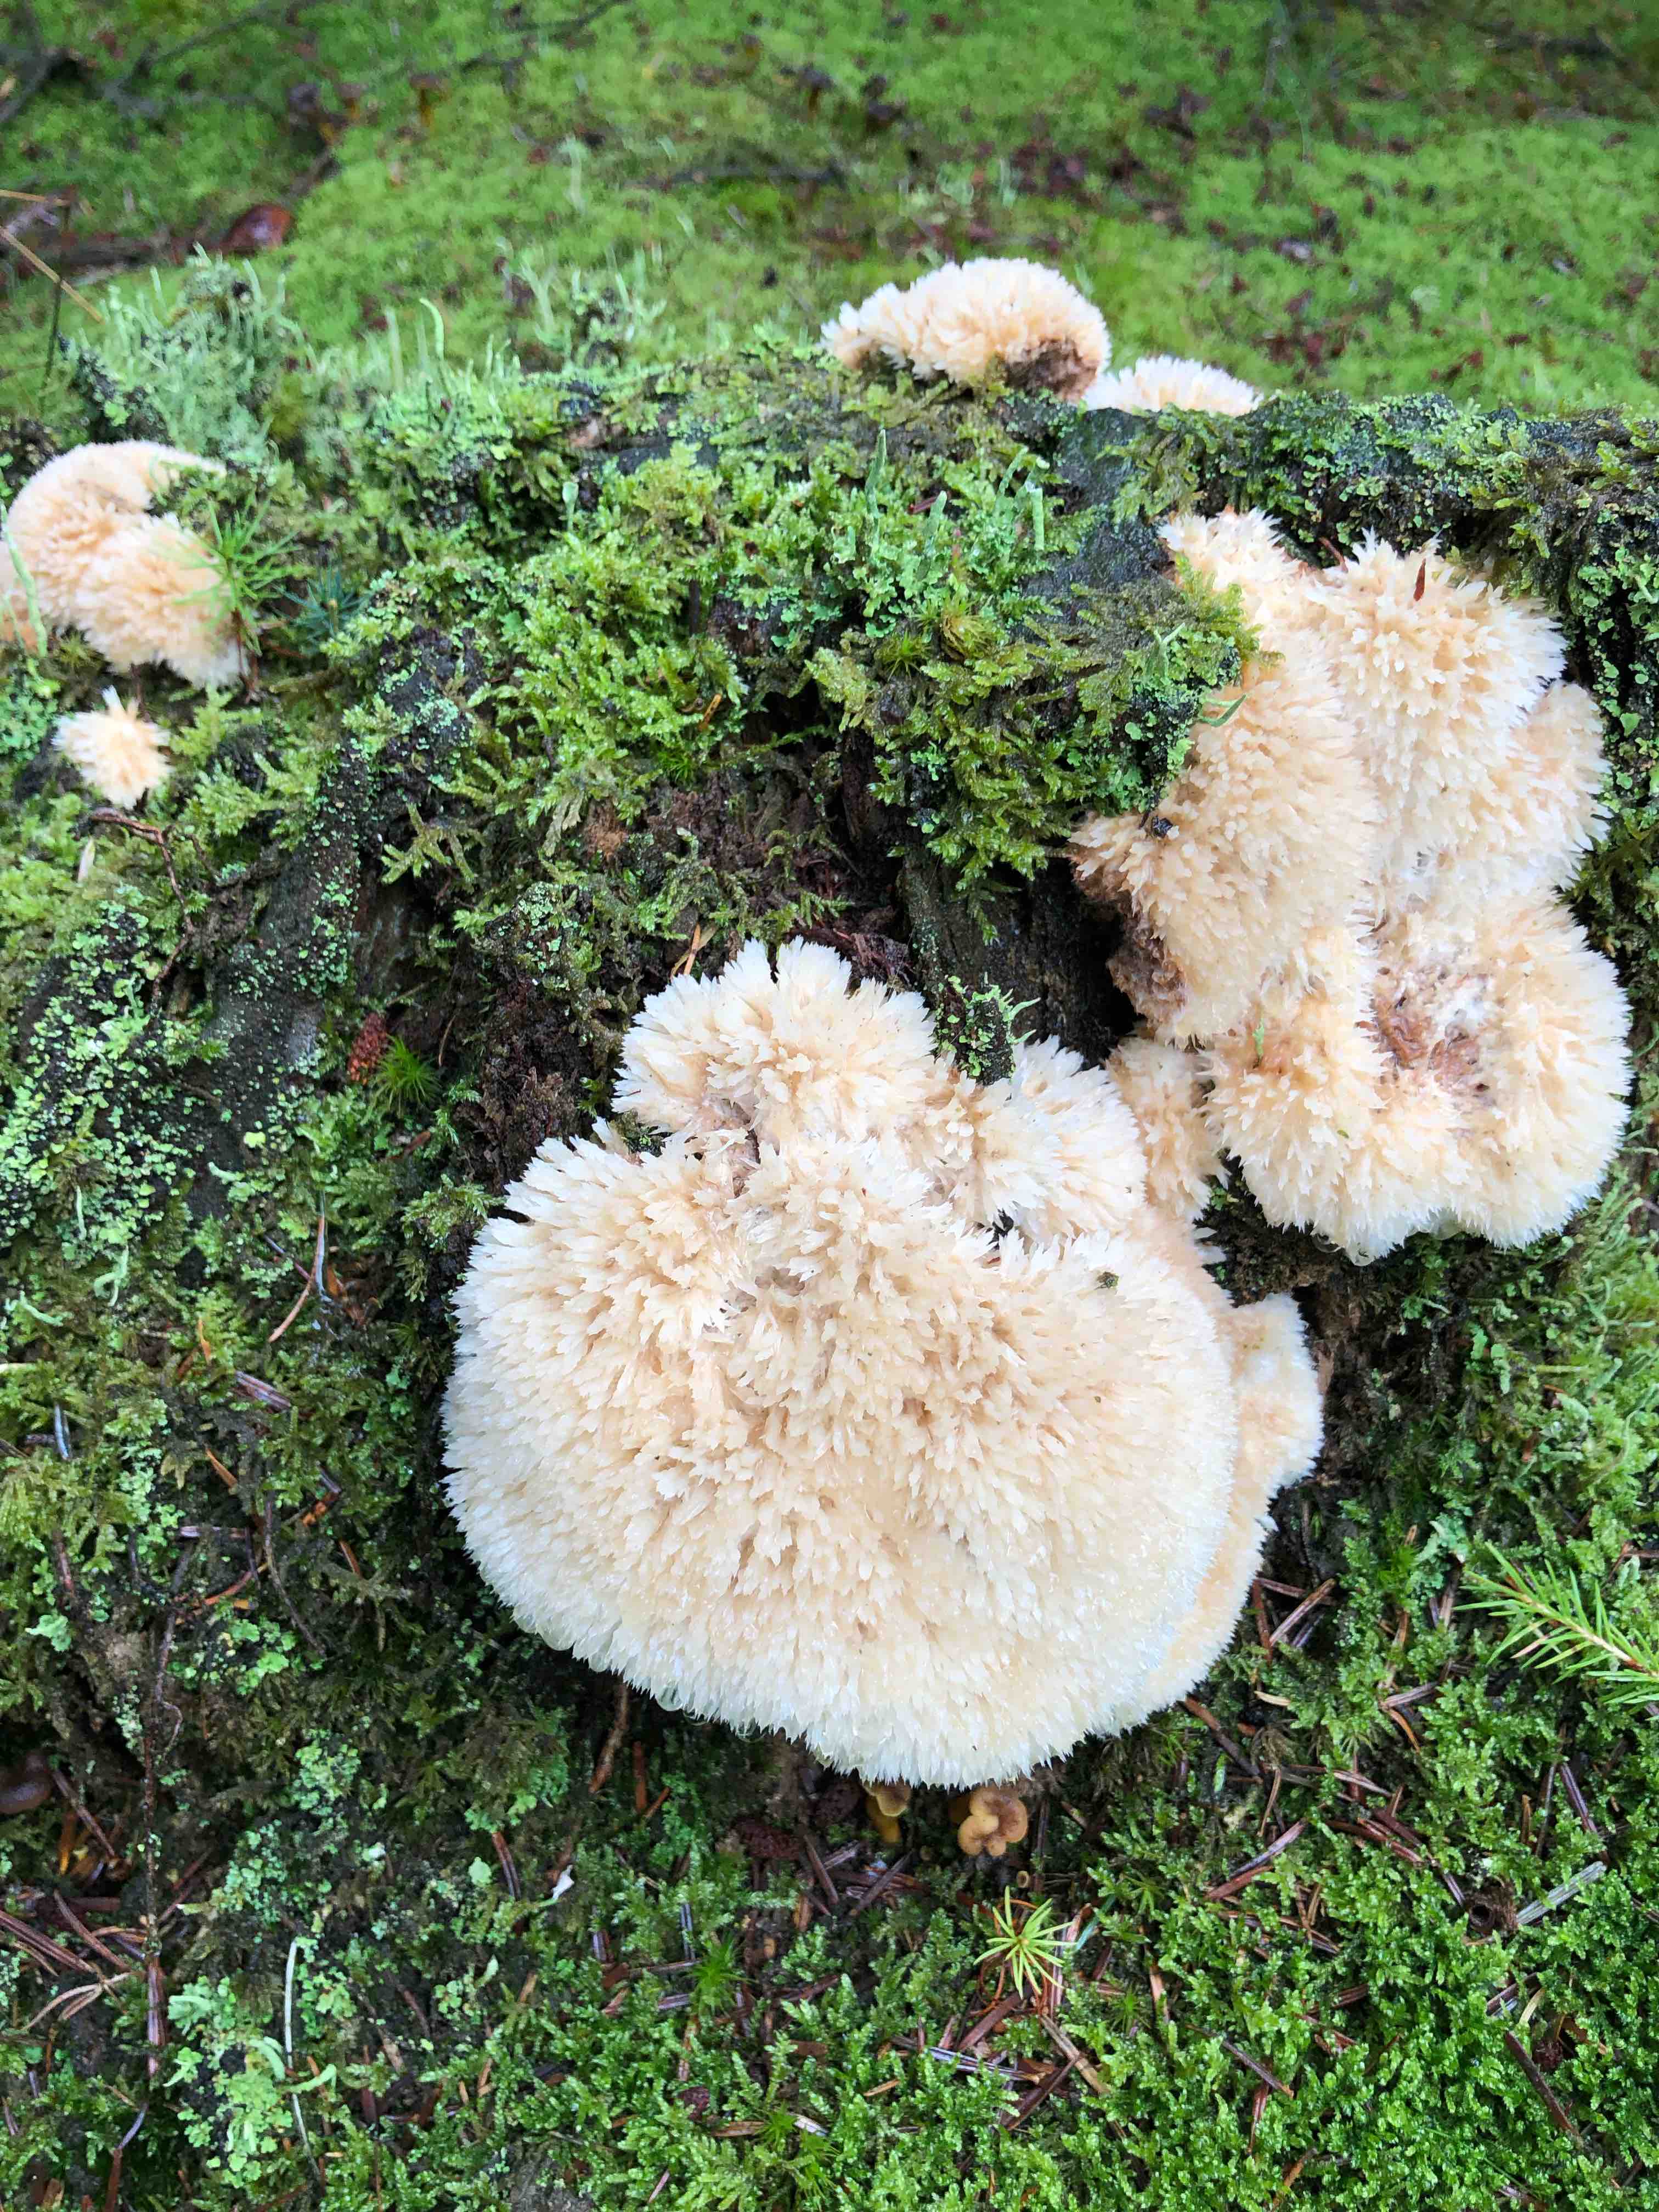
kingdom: Fungi
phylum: Basidiomycota
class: Agaricomycetes
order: Polyporales
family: Dacryobolaceae
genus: Postia
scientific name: Postia ptychogaster
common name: støvende kødporesvamp
